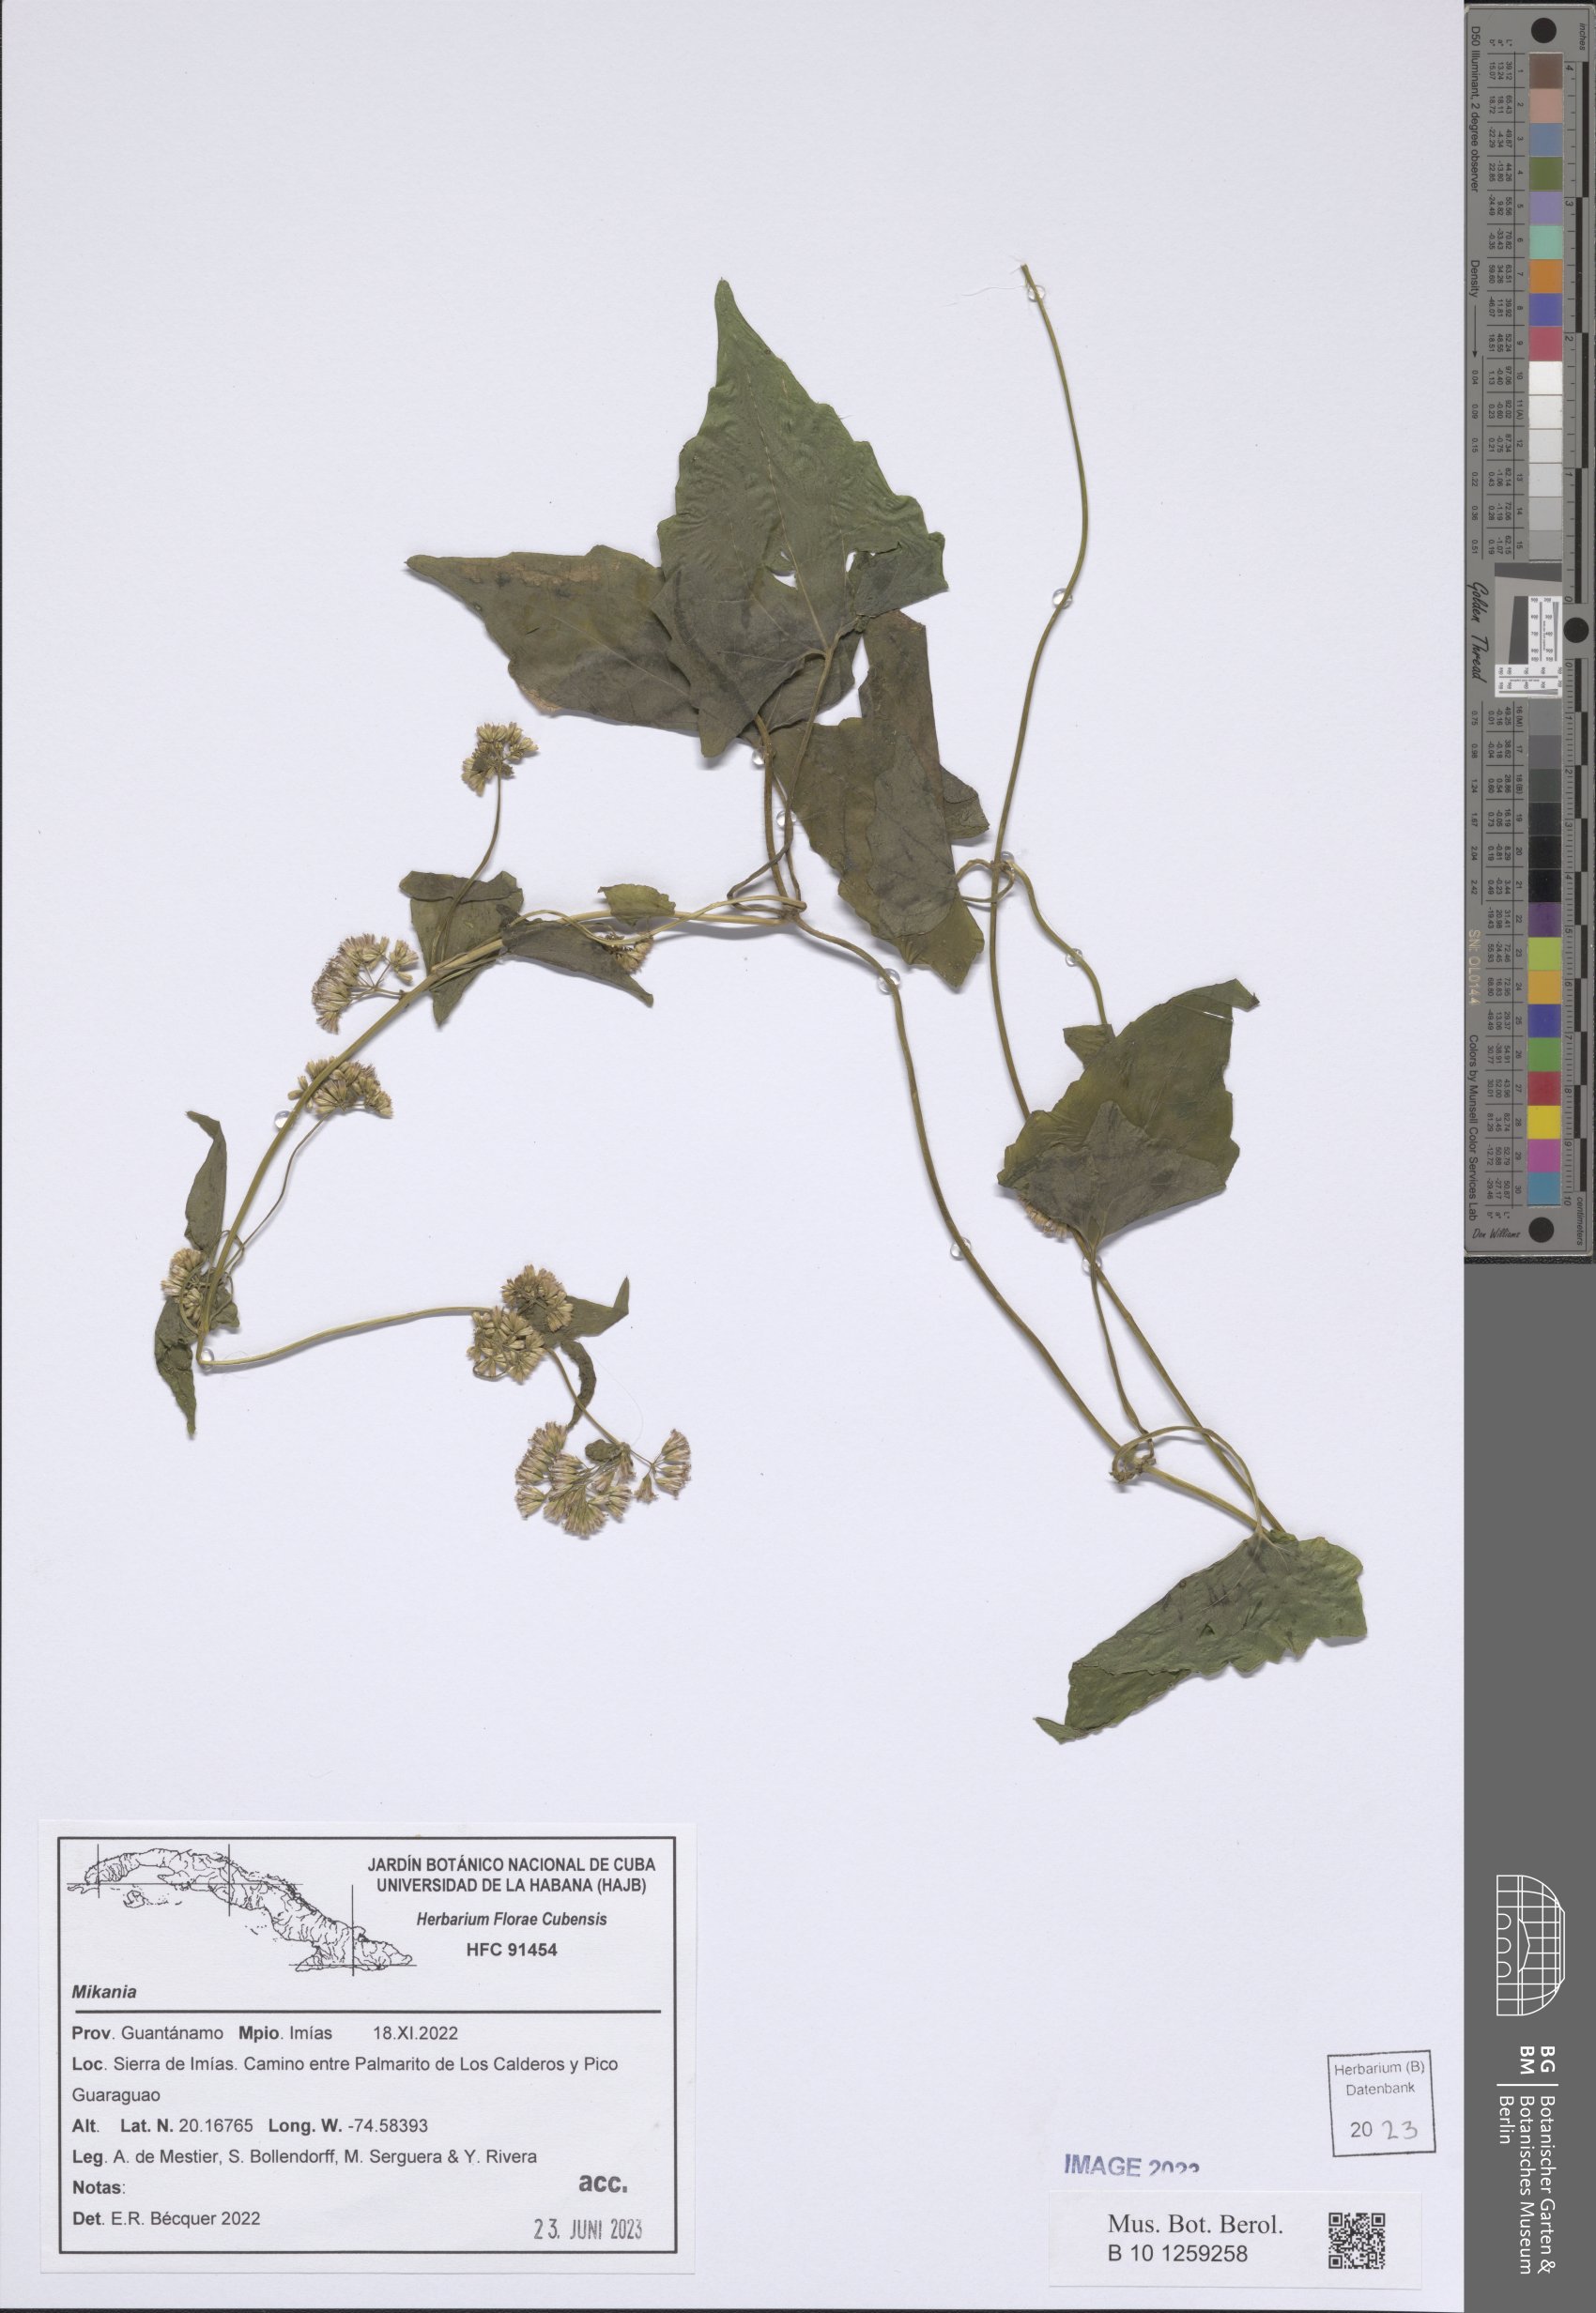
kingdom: Plantae
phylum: Tracheophyta
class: Magnoliopsida
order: Asterales
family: Asteraceae
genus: Mikania
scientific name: Mikania
